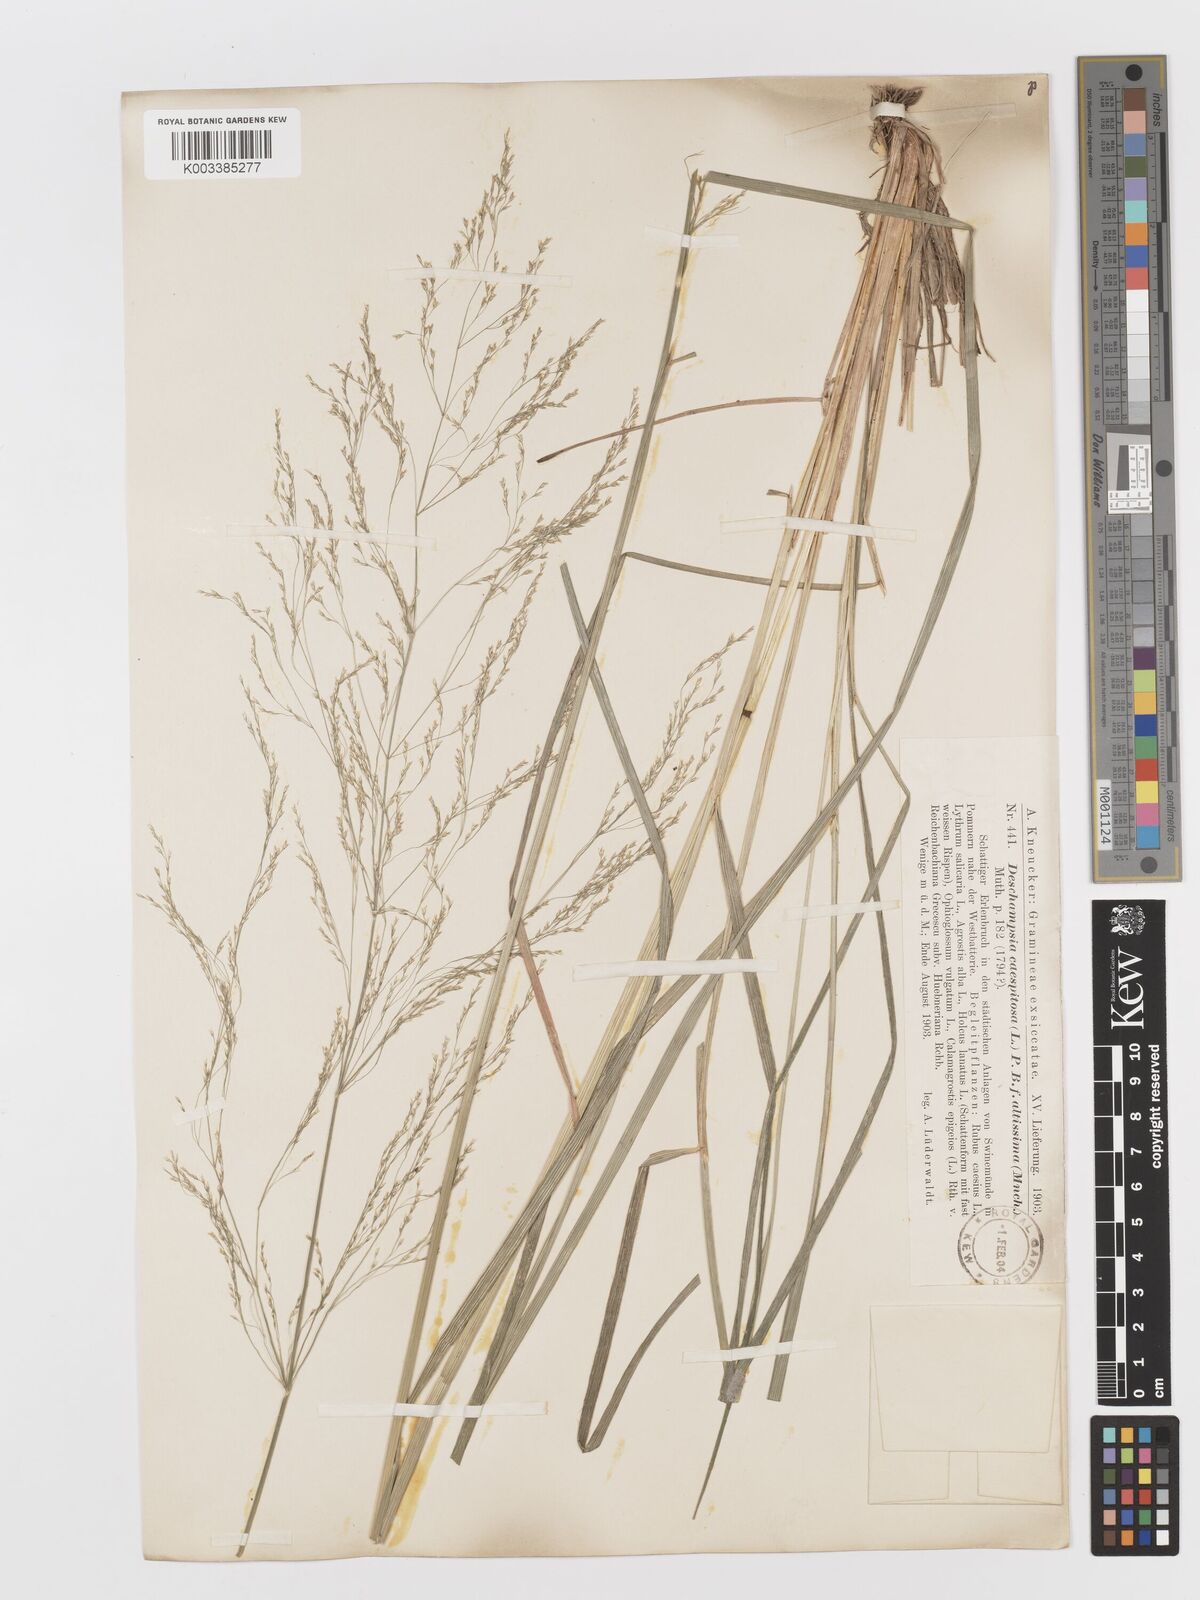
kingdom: Plantae
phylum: Tracheophyta
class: Liliopsida
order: Poales
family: Poaceae
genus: Deschampsia
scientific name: Deschampsia cespitosa
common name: Tufted hair-grass
